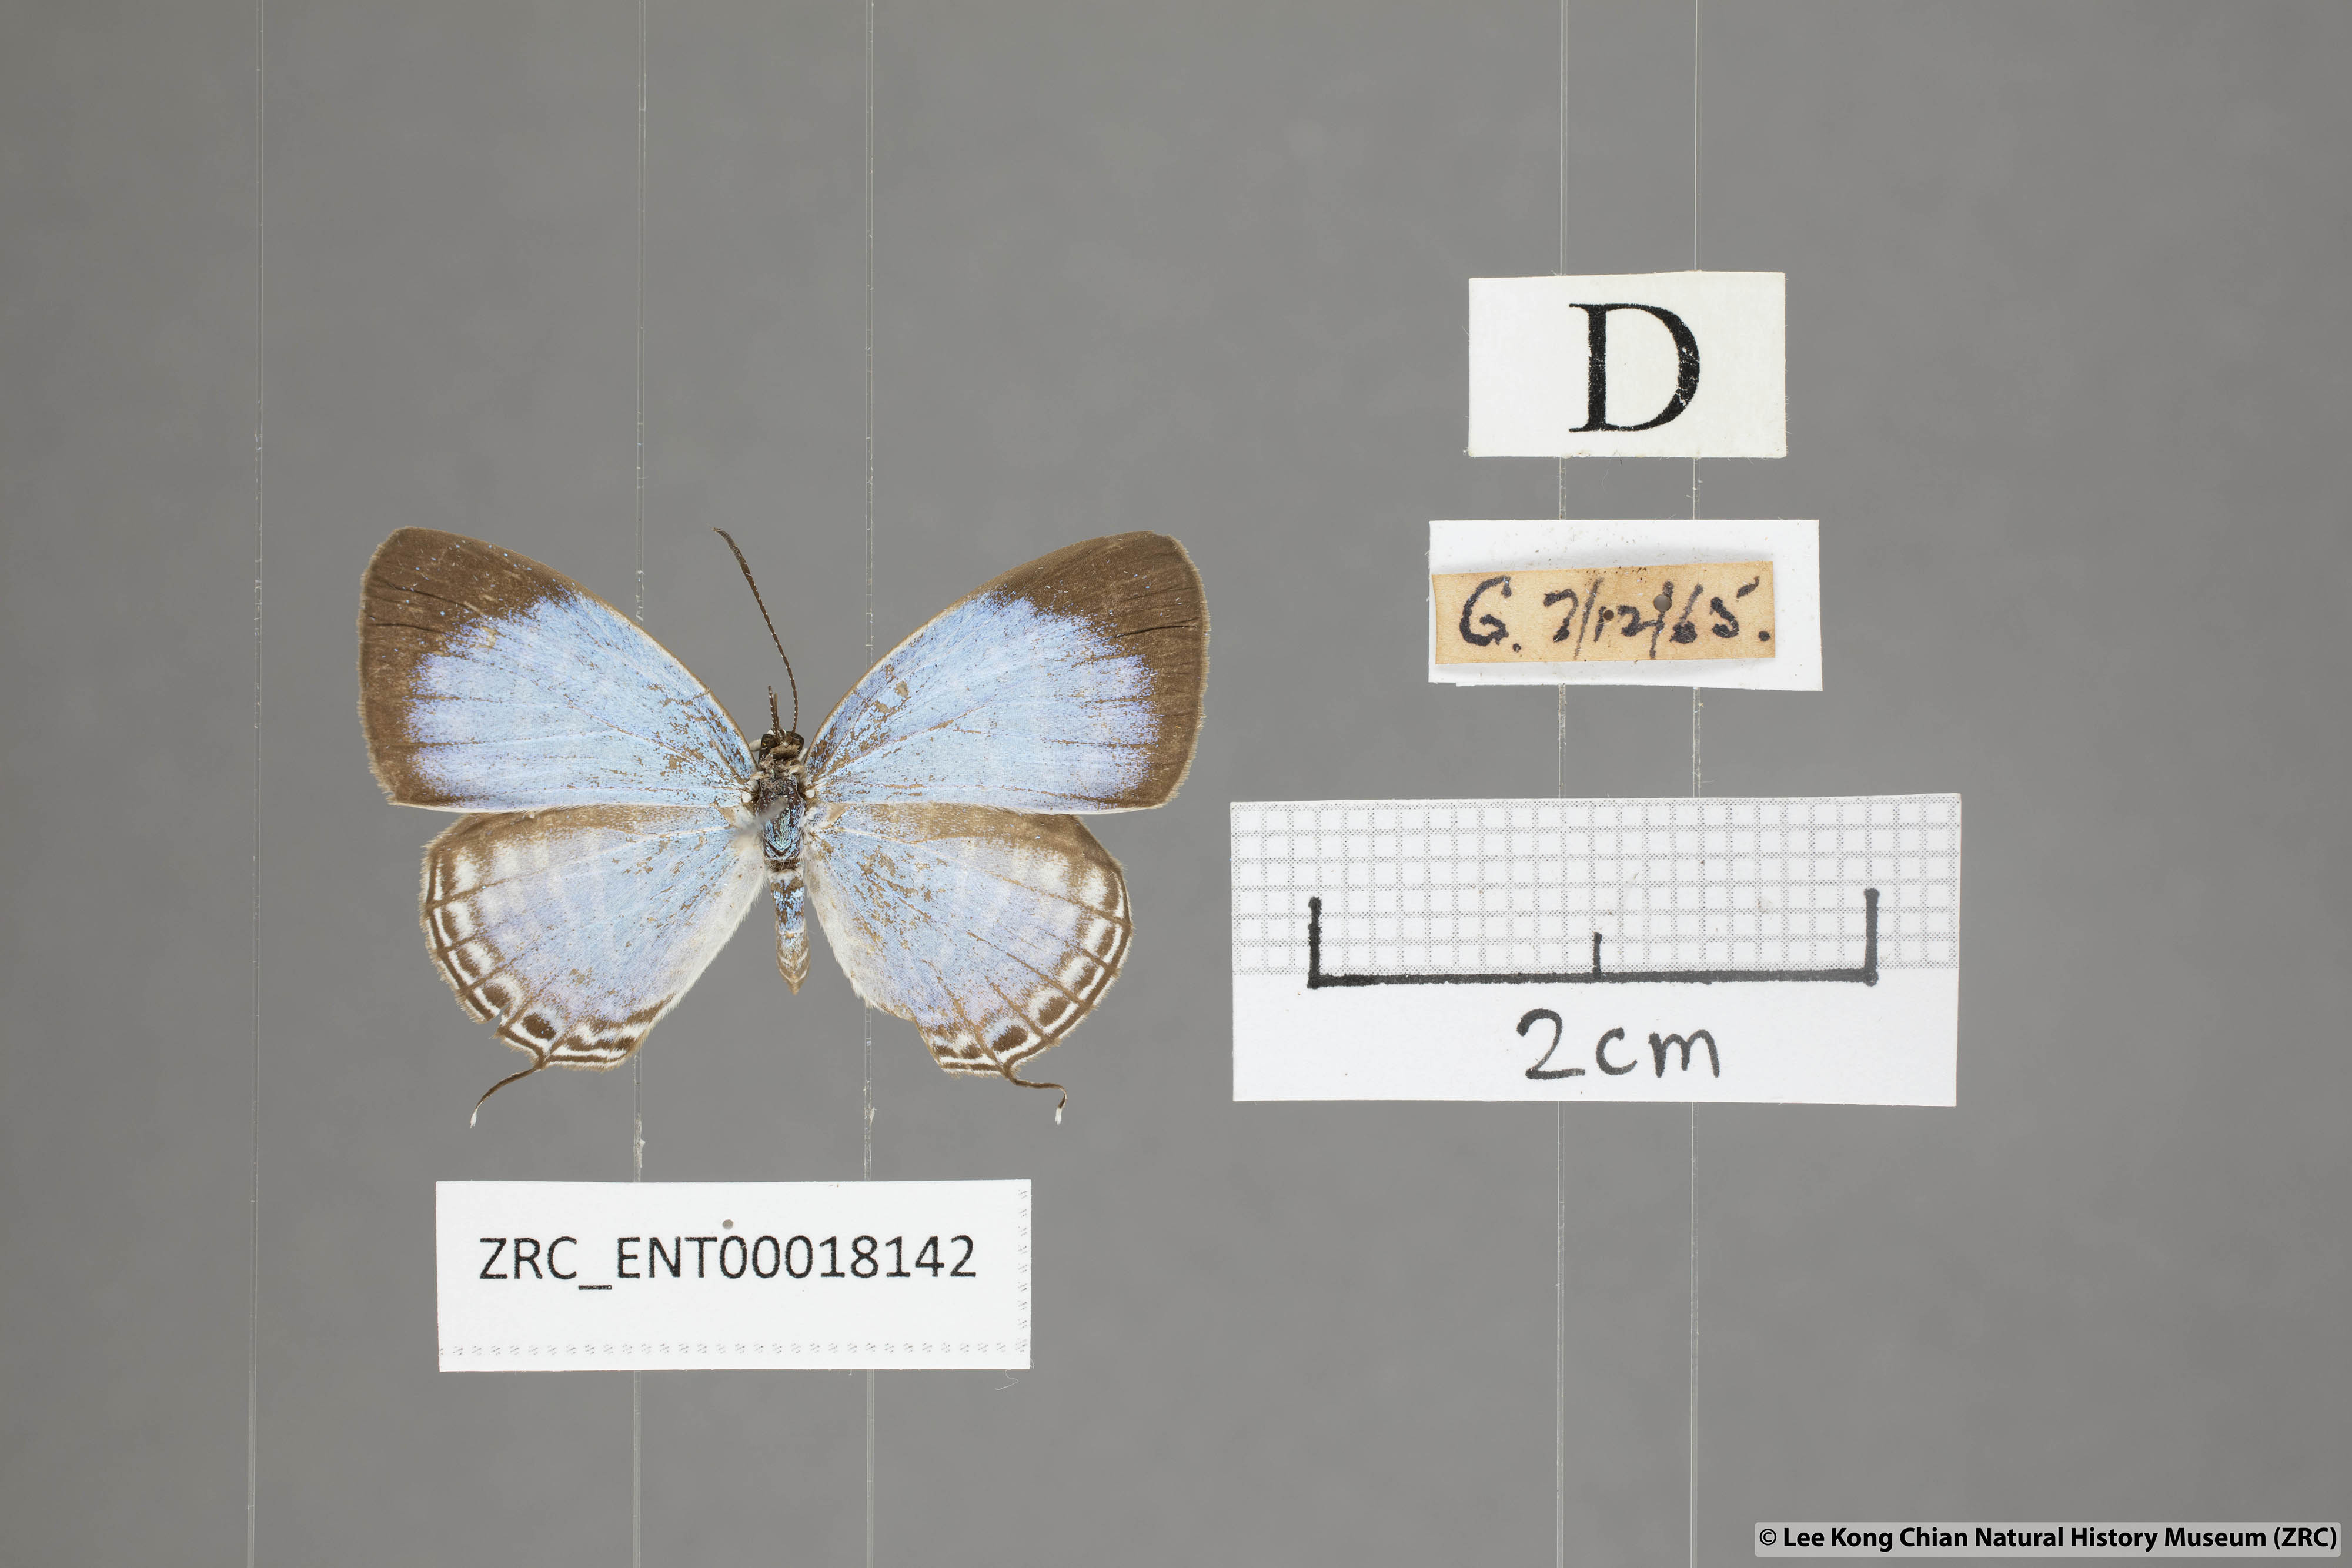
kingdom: Animalia
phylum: Arthropoda
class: Insecta
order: Lepidoptera
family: Lycaenidae
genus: Jamides
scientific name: Jamides malaccanus
